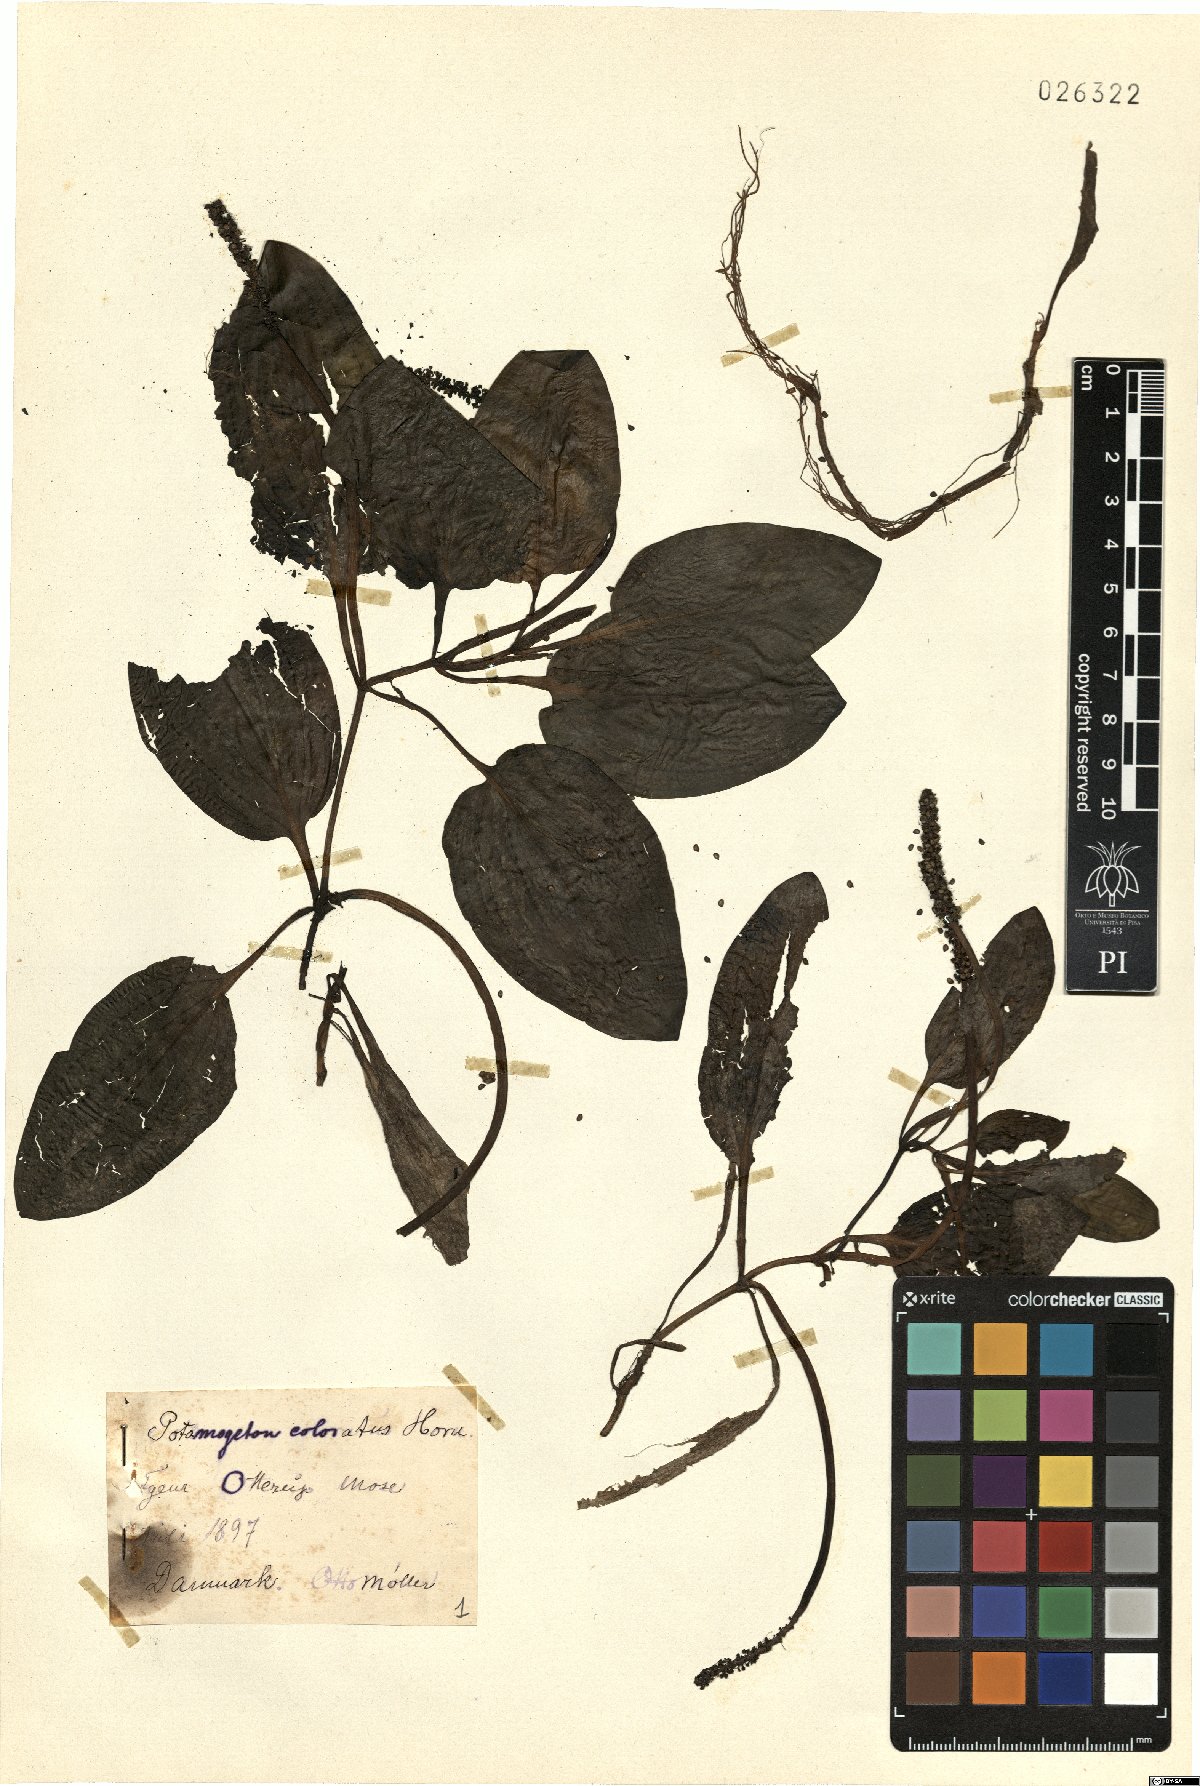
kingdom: Plantae
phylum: Tracheophyta
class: Liliopsida
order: Alismatales
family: Potamogetonaceae
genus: Potamogeton
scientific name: Potamogeton coloratus
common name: Fen pondweed
